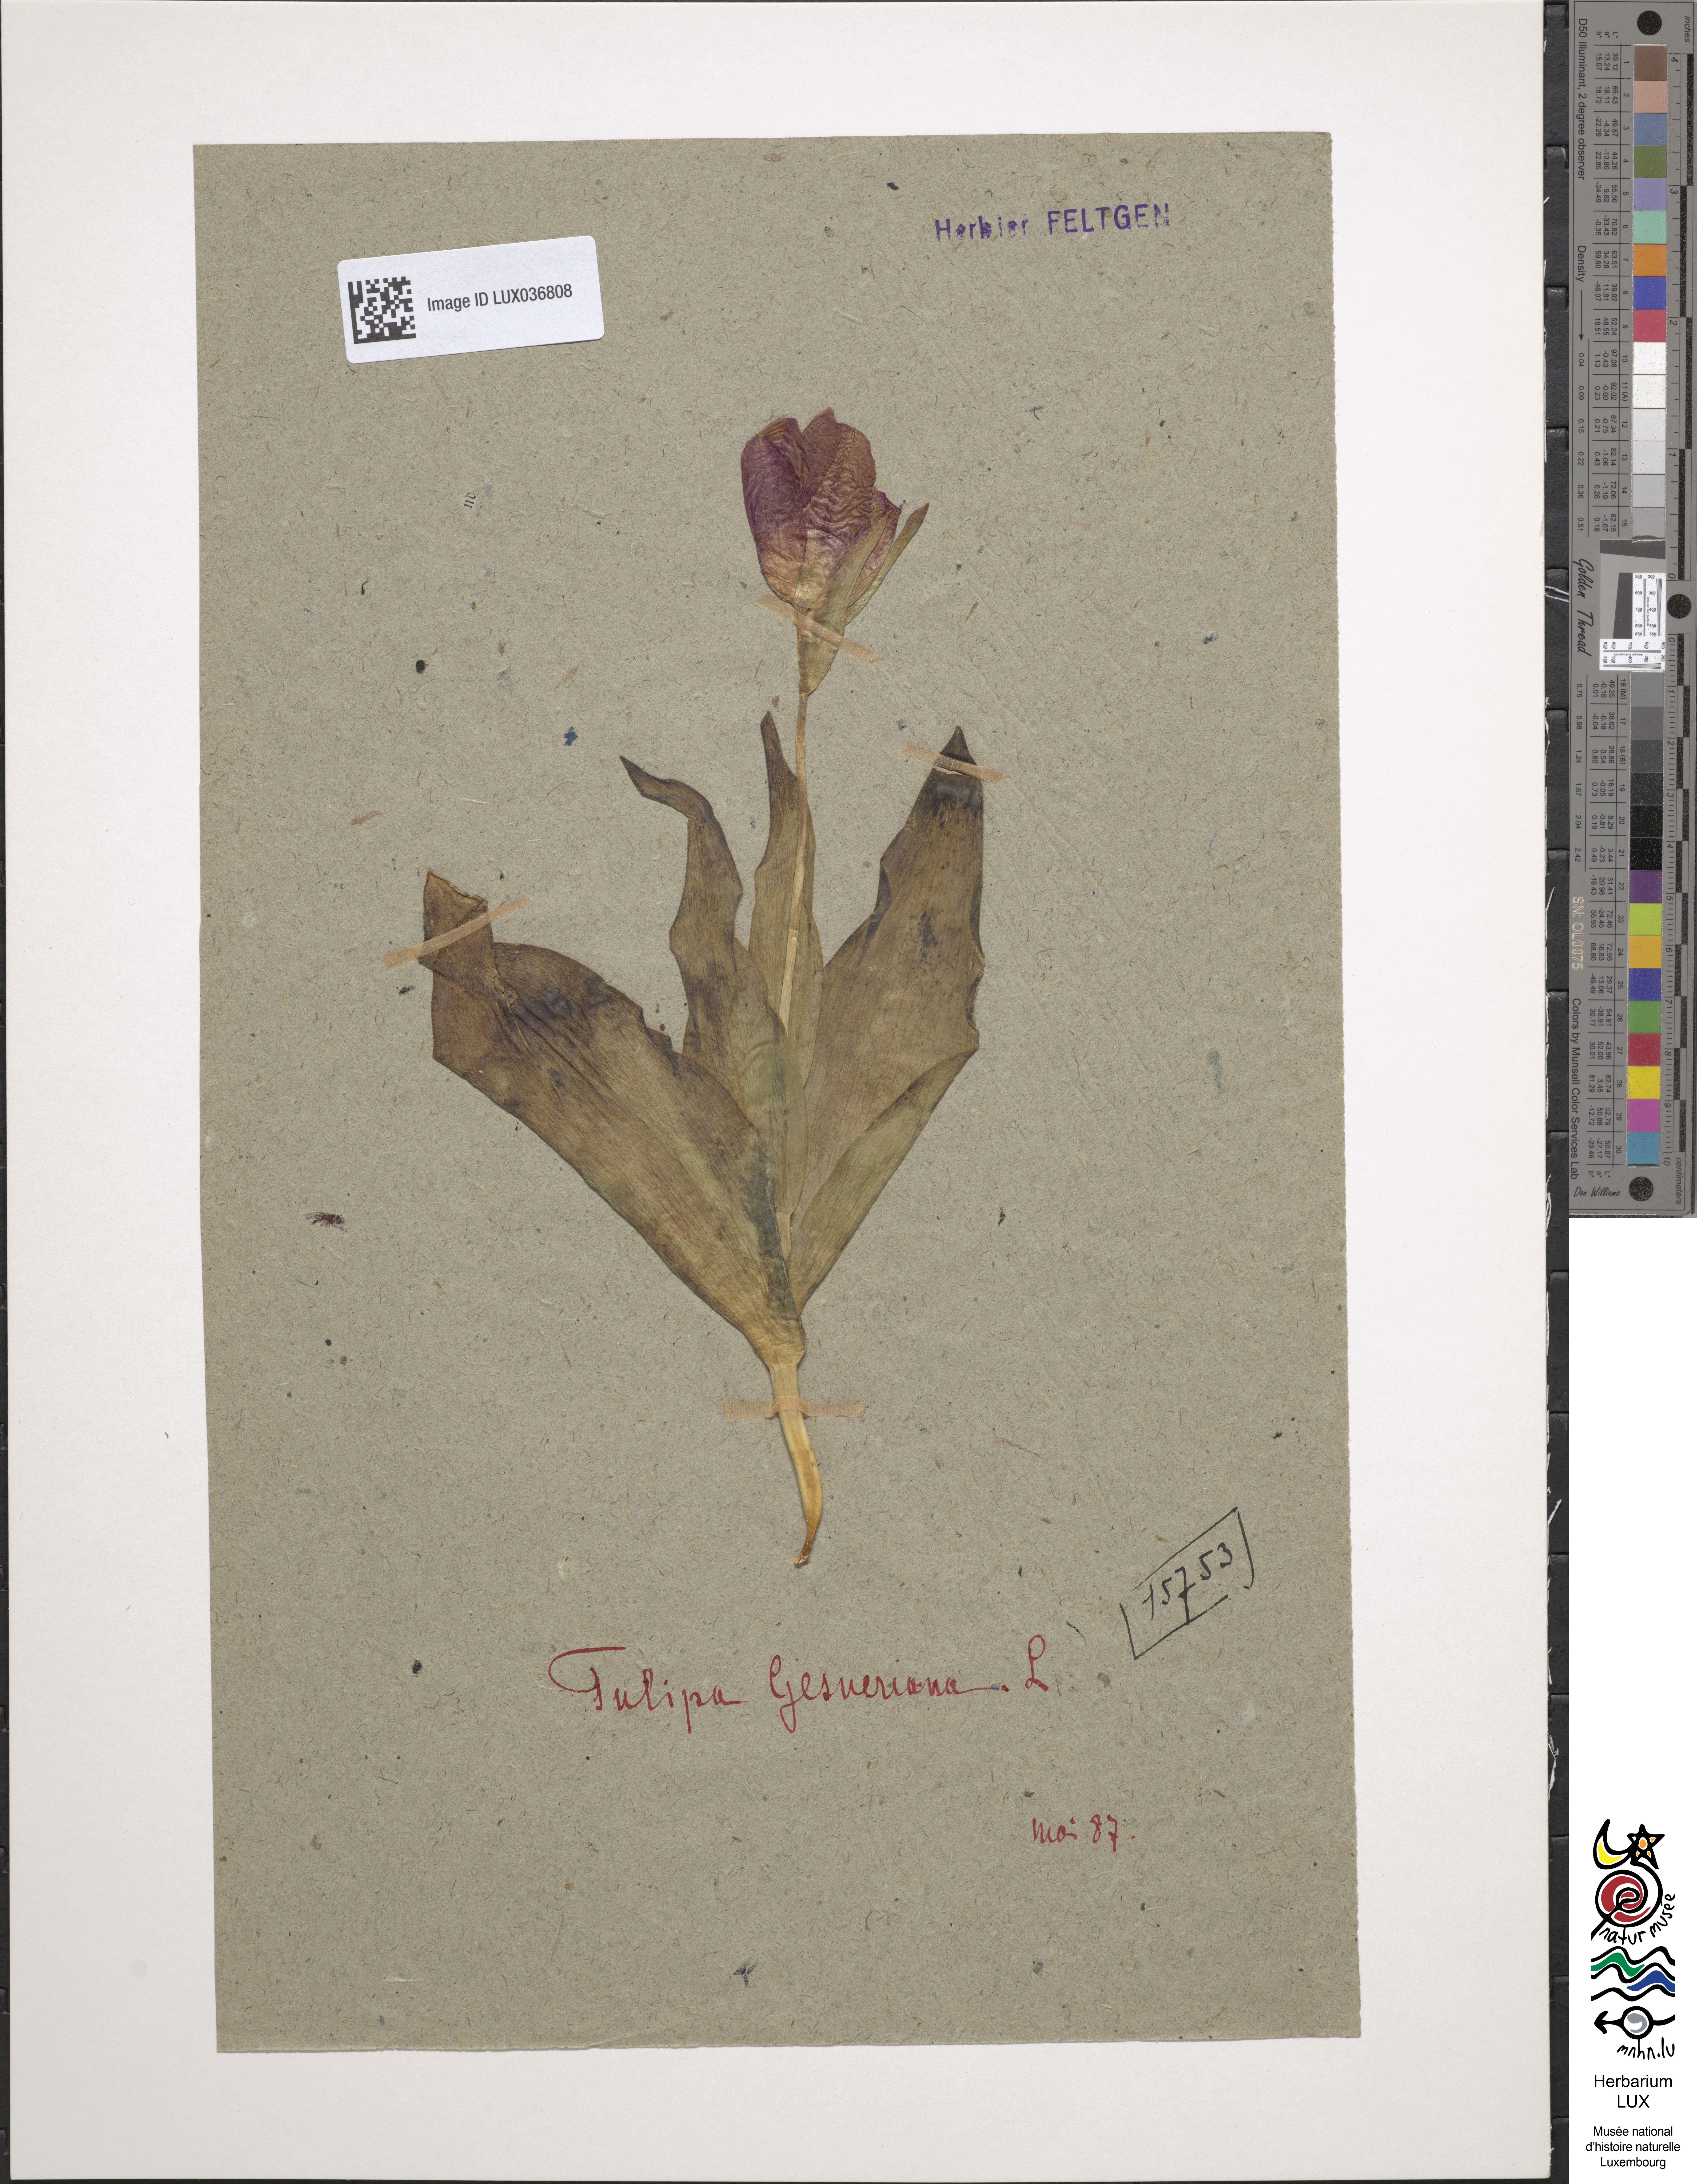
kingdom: Plantae
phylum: Tracheophyta
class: Liliopsida
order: Liliales
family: Liliaceae
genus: Tulipa
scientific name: Tulipa gesneriana
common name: Garden tulip
